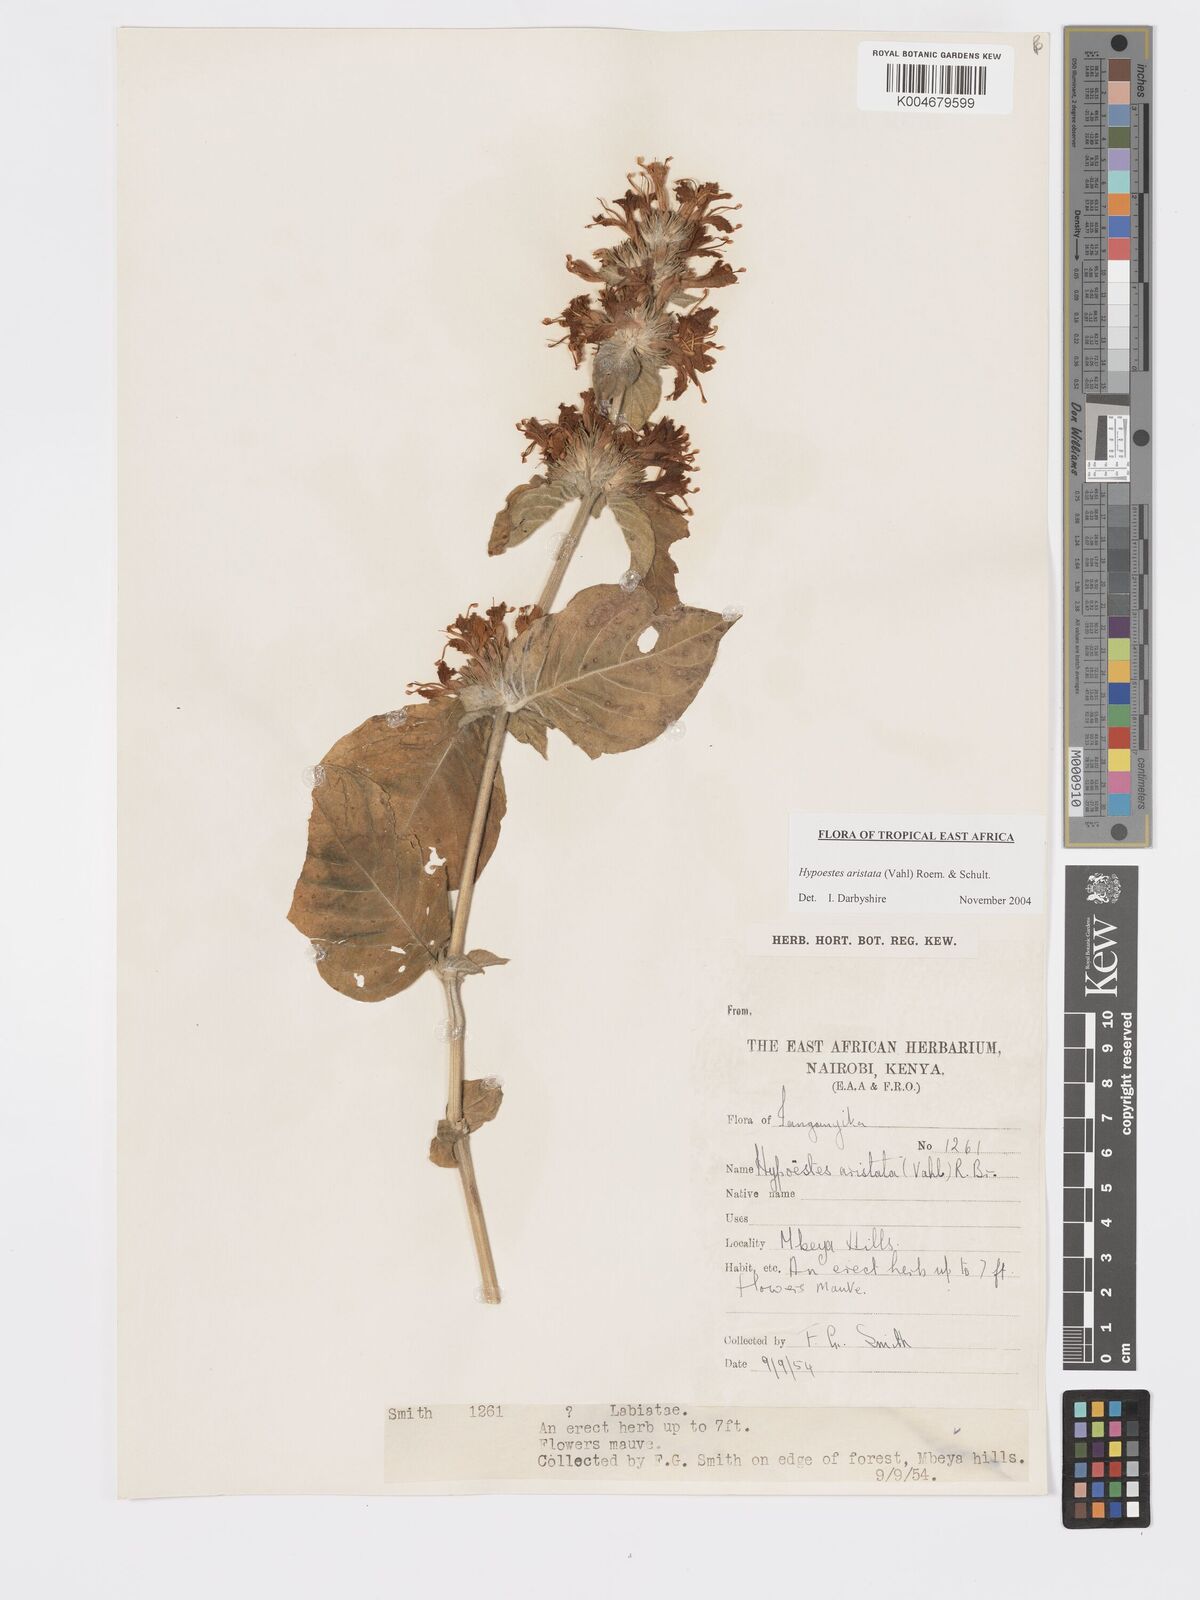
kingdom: Plantae
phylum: Tracheophyta
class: Magnoliopsida
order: Lamiales
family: Acanthaceae
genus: Hypoestes
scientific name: Hypoestes aristata
